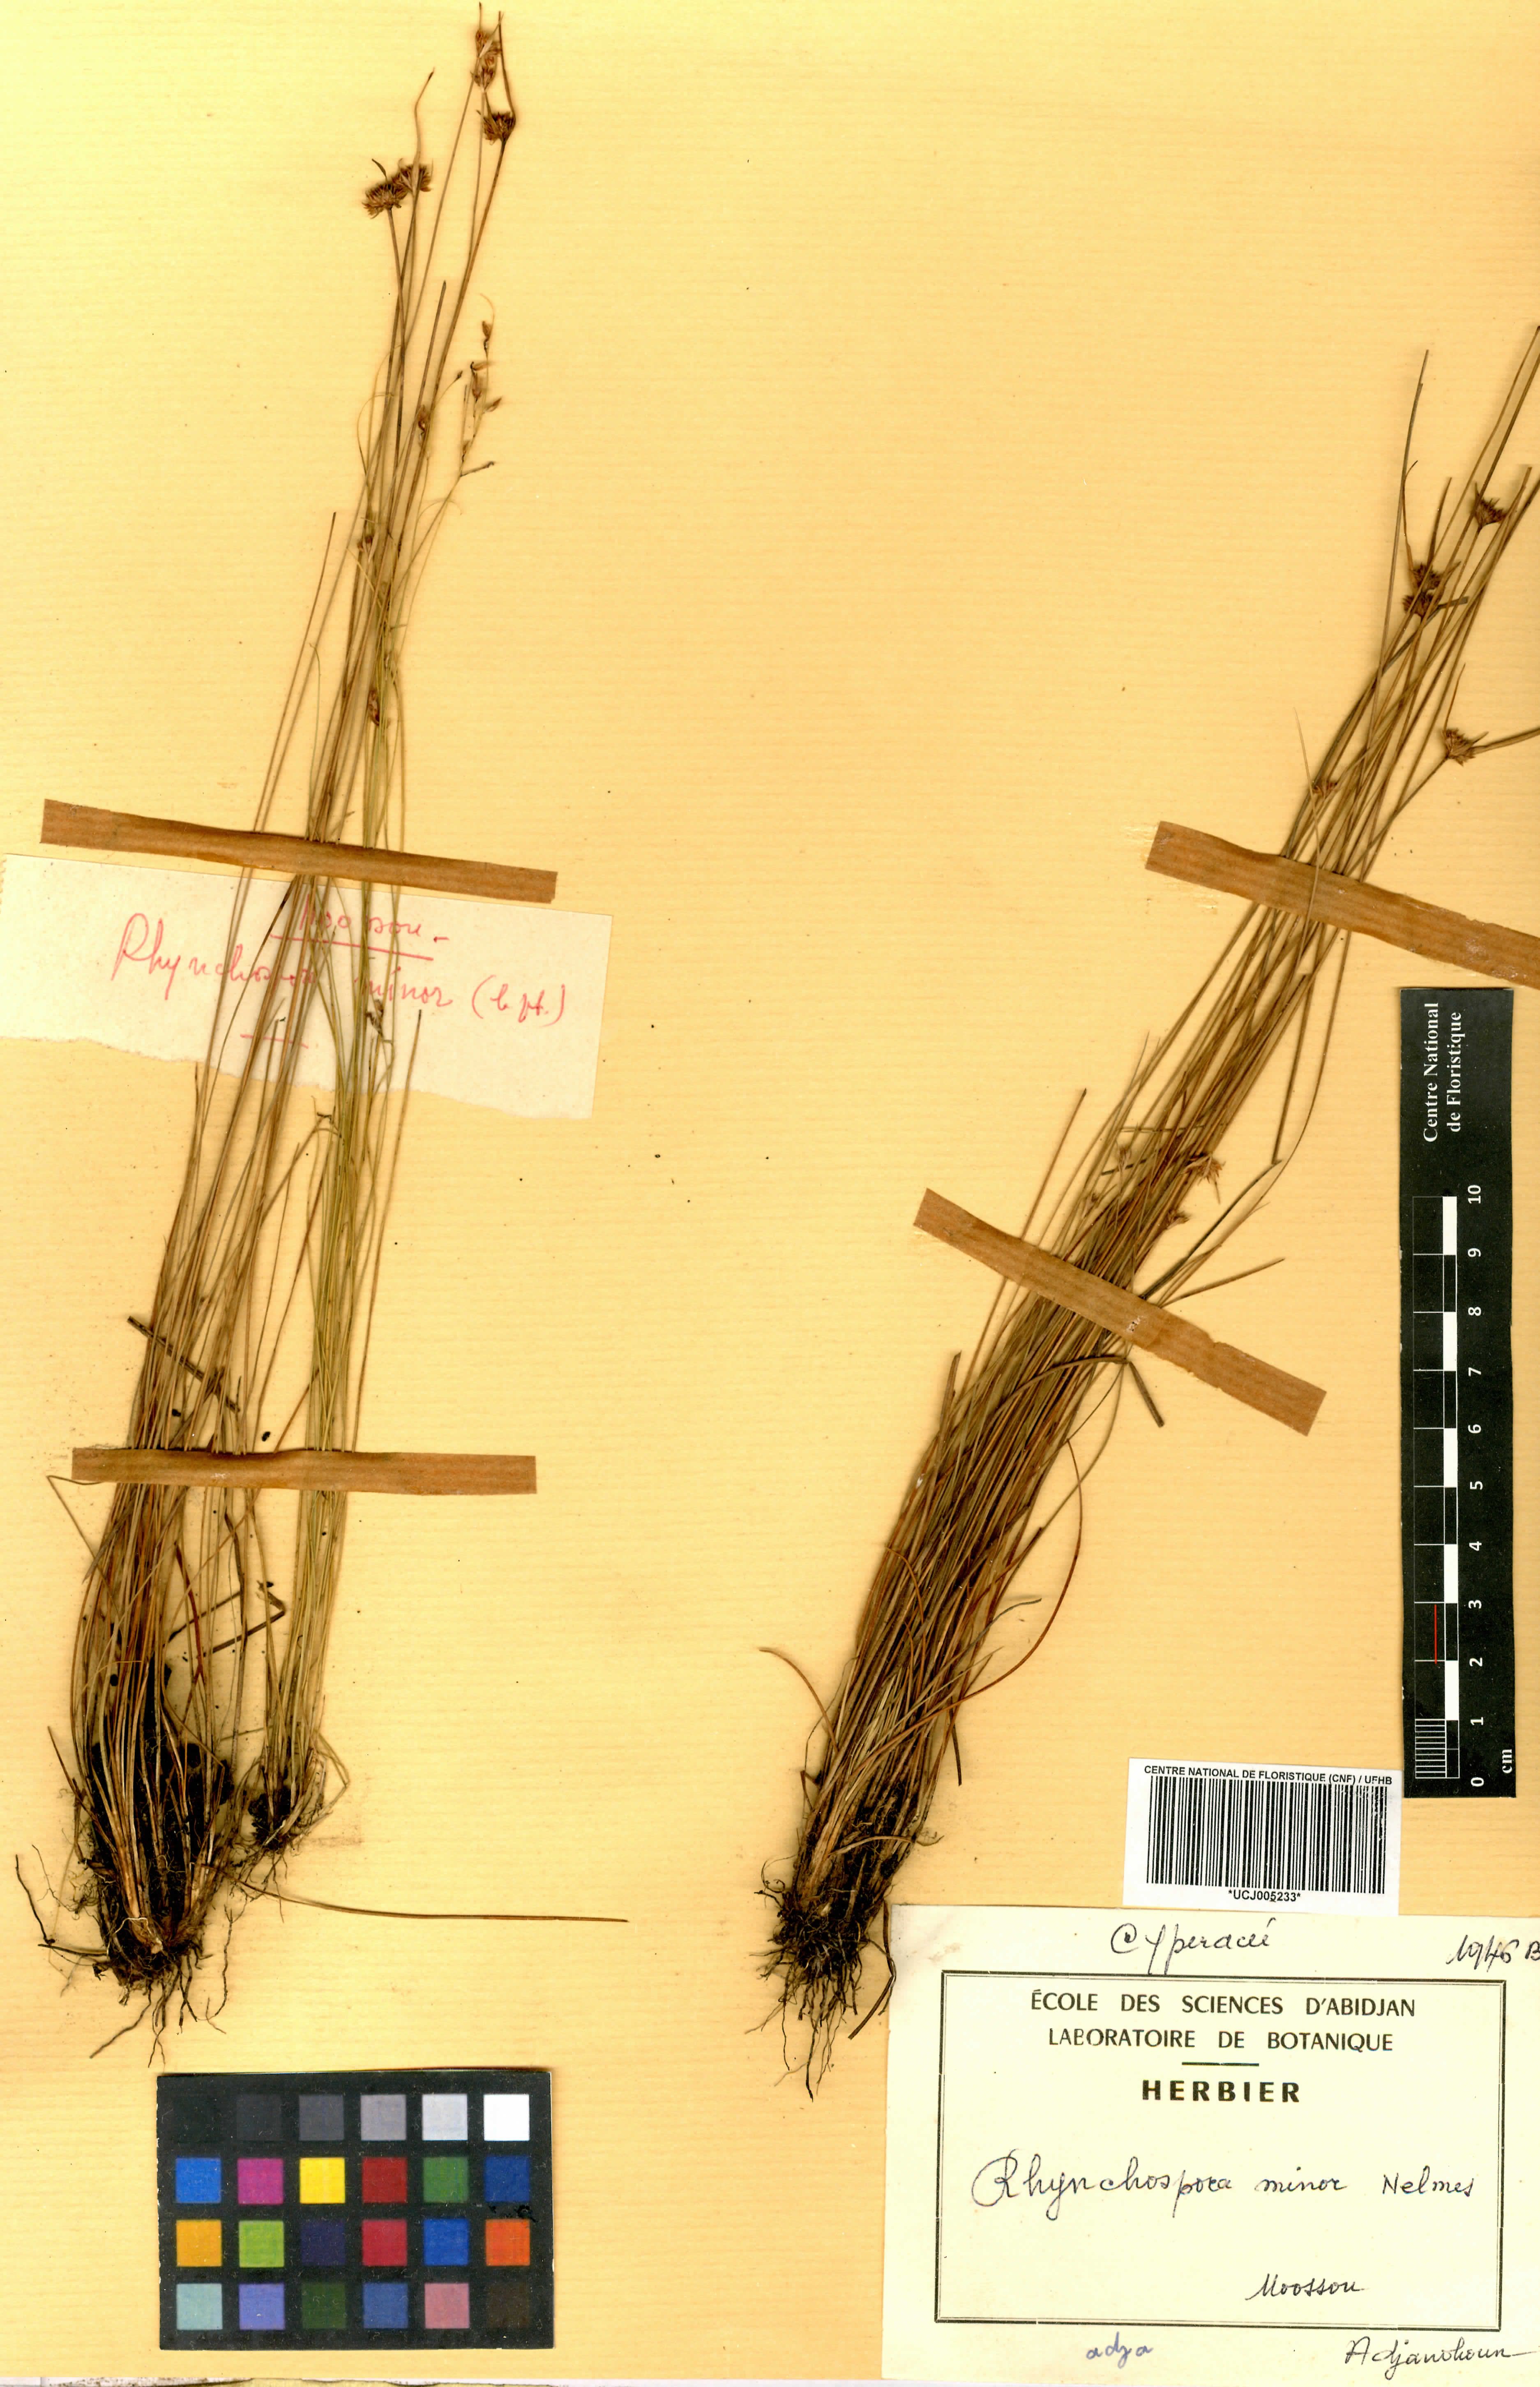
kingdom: Plantae
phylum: Tracheophyta
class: Liliopsida
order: Poales
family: Cyperaceae
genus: Rhynchospora
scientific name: Rhynchospora rubra
